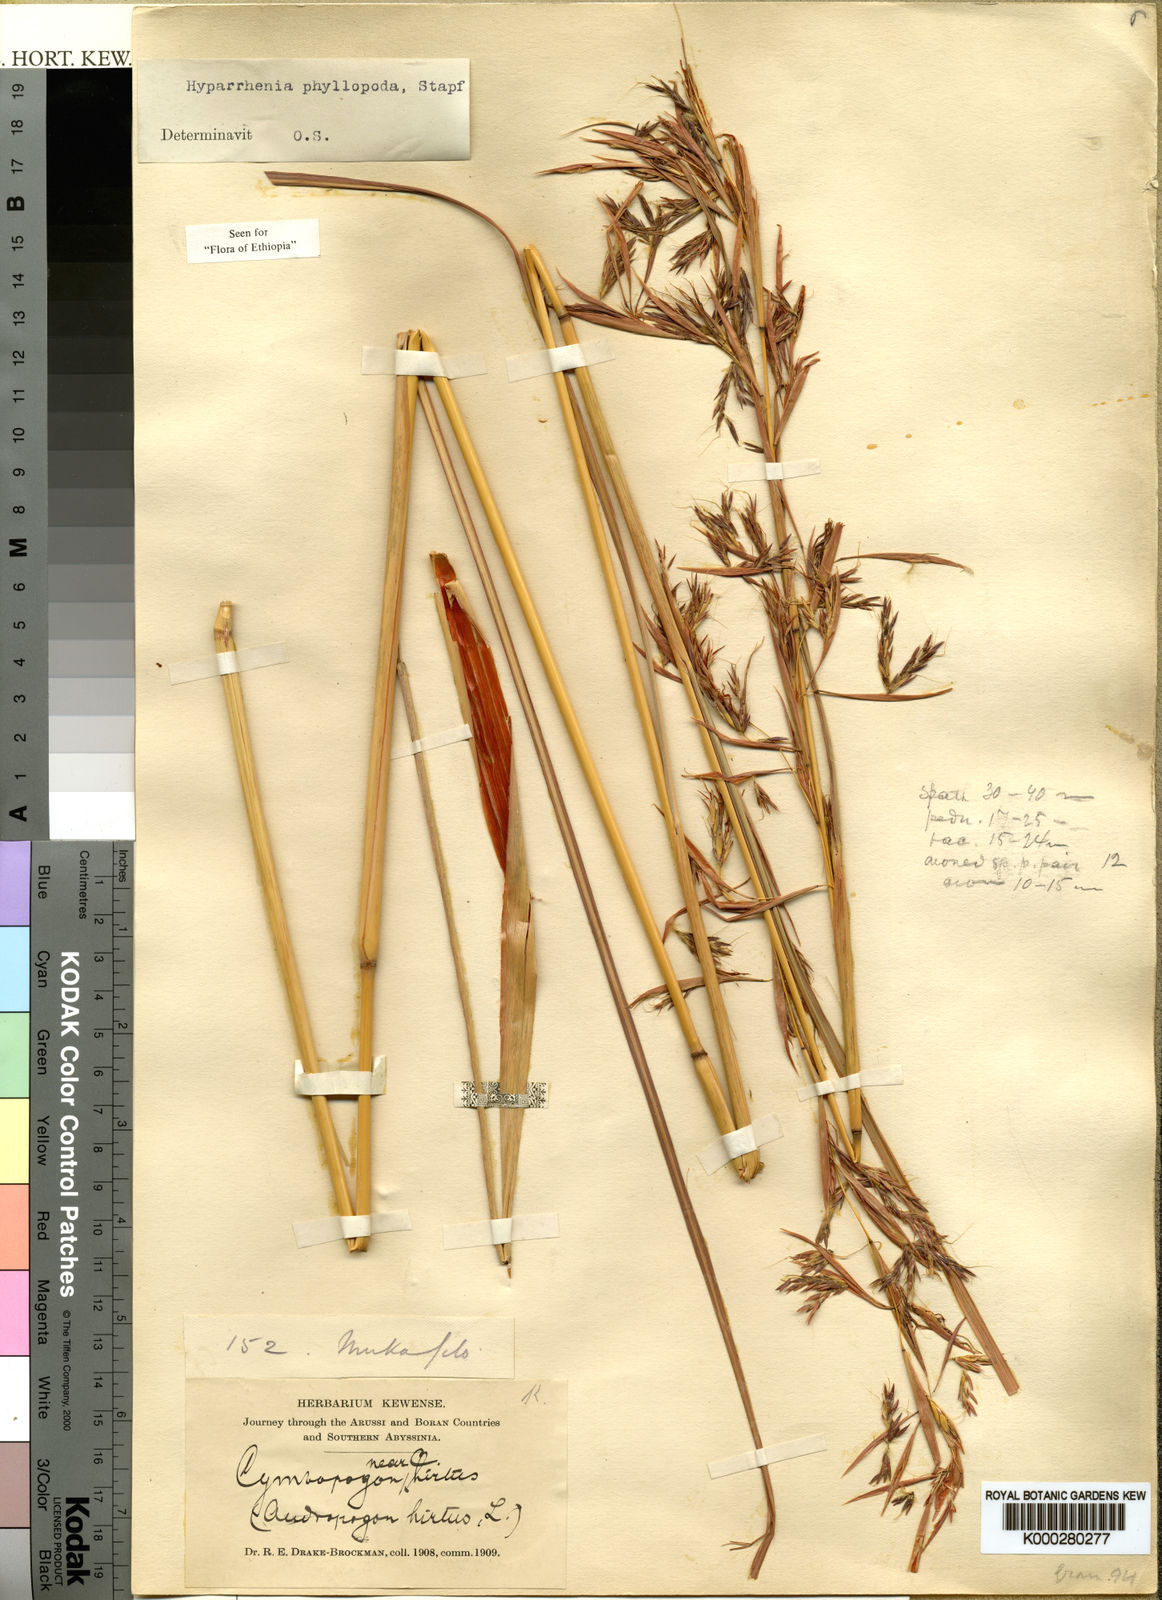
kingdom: Plantae
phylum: Tracheophyta
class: Liliopsida
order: Poales
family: Poaceae
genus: Hyparrhenia
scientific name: Hyparrhenia dregeana
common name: Silky thatching grass
